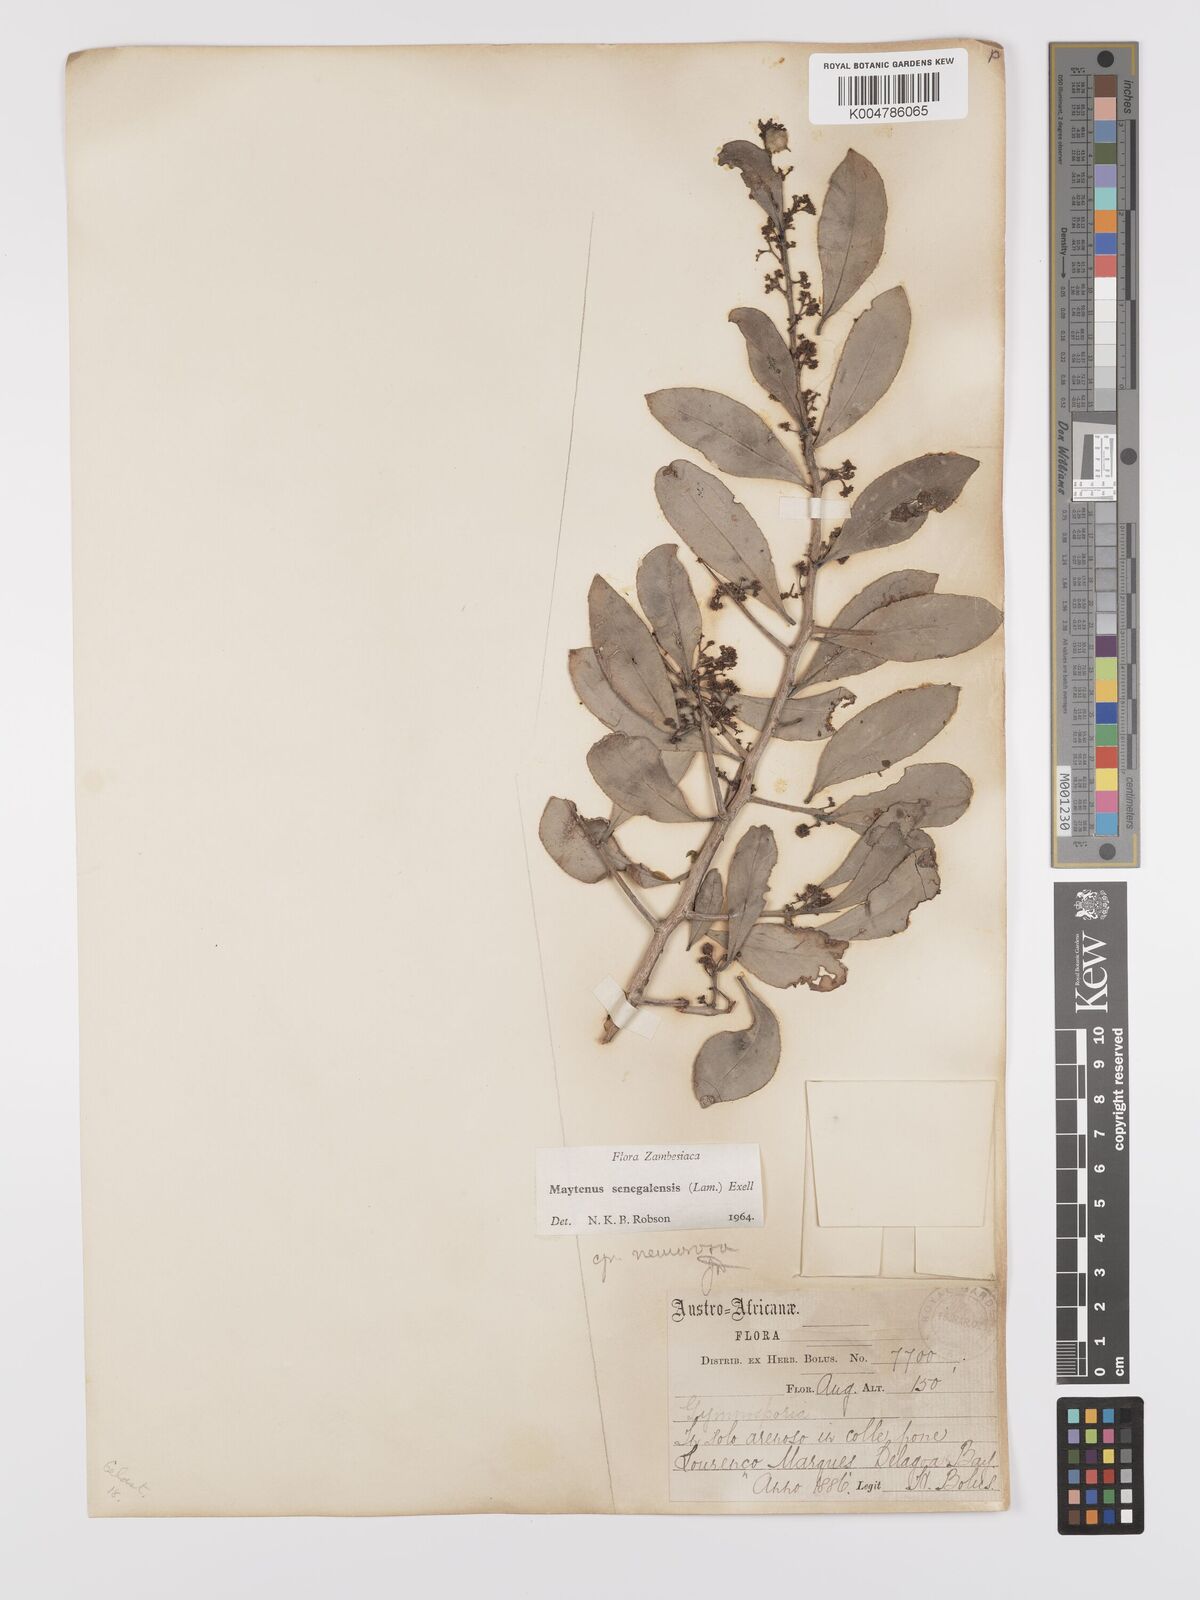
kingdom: Plantae
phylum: Tracheophyta
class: Magnoliopsida
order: Celastrales
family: Celastraceae
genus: Gymnosporia
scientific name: Gymnosporia senegalensis
